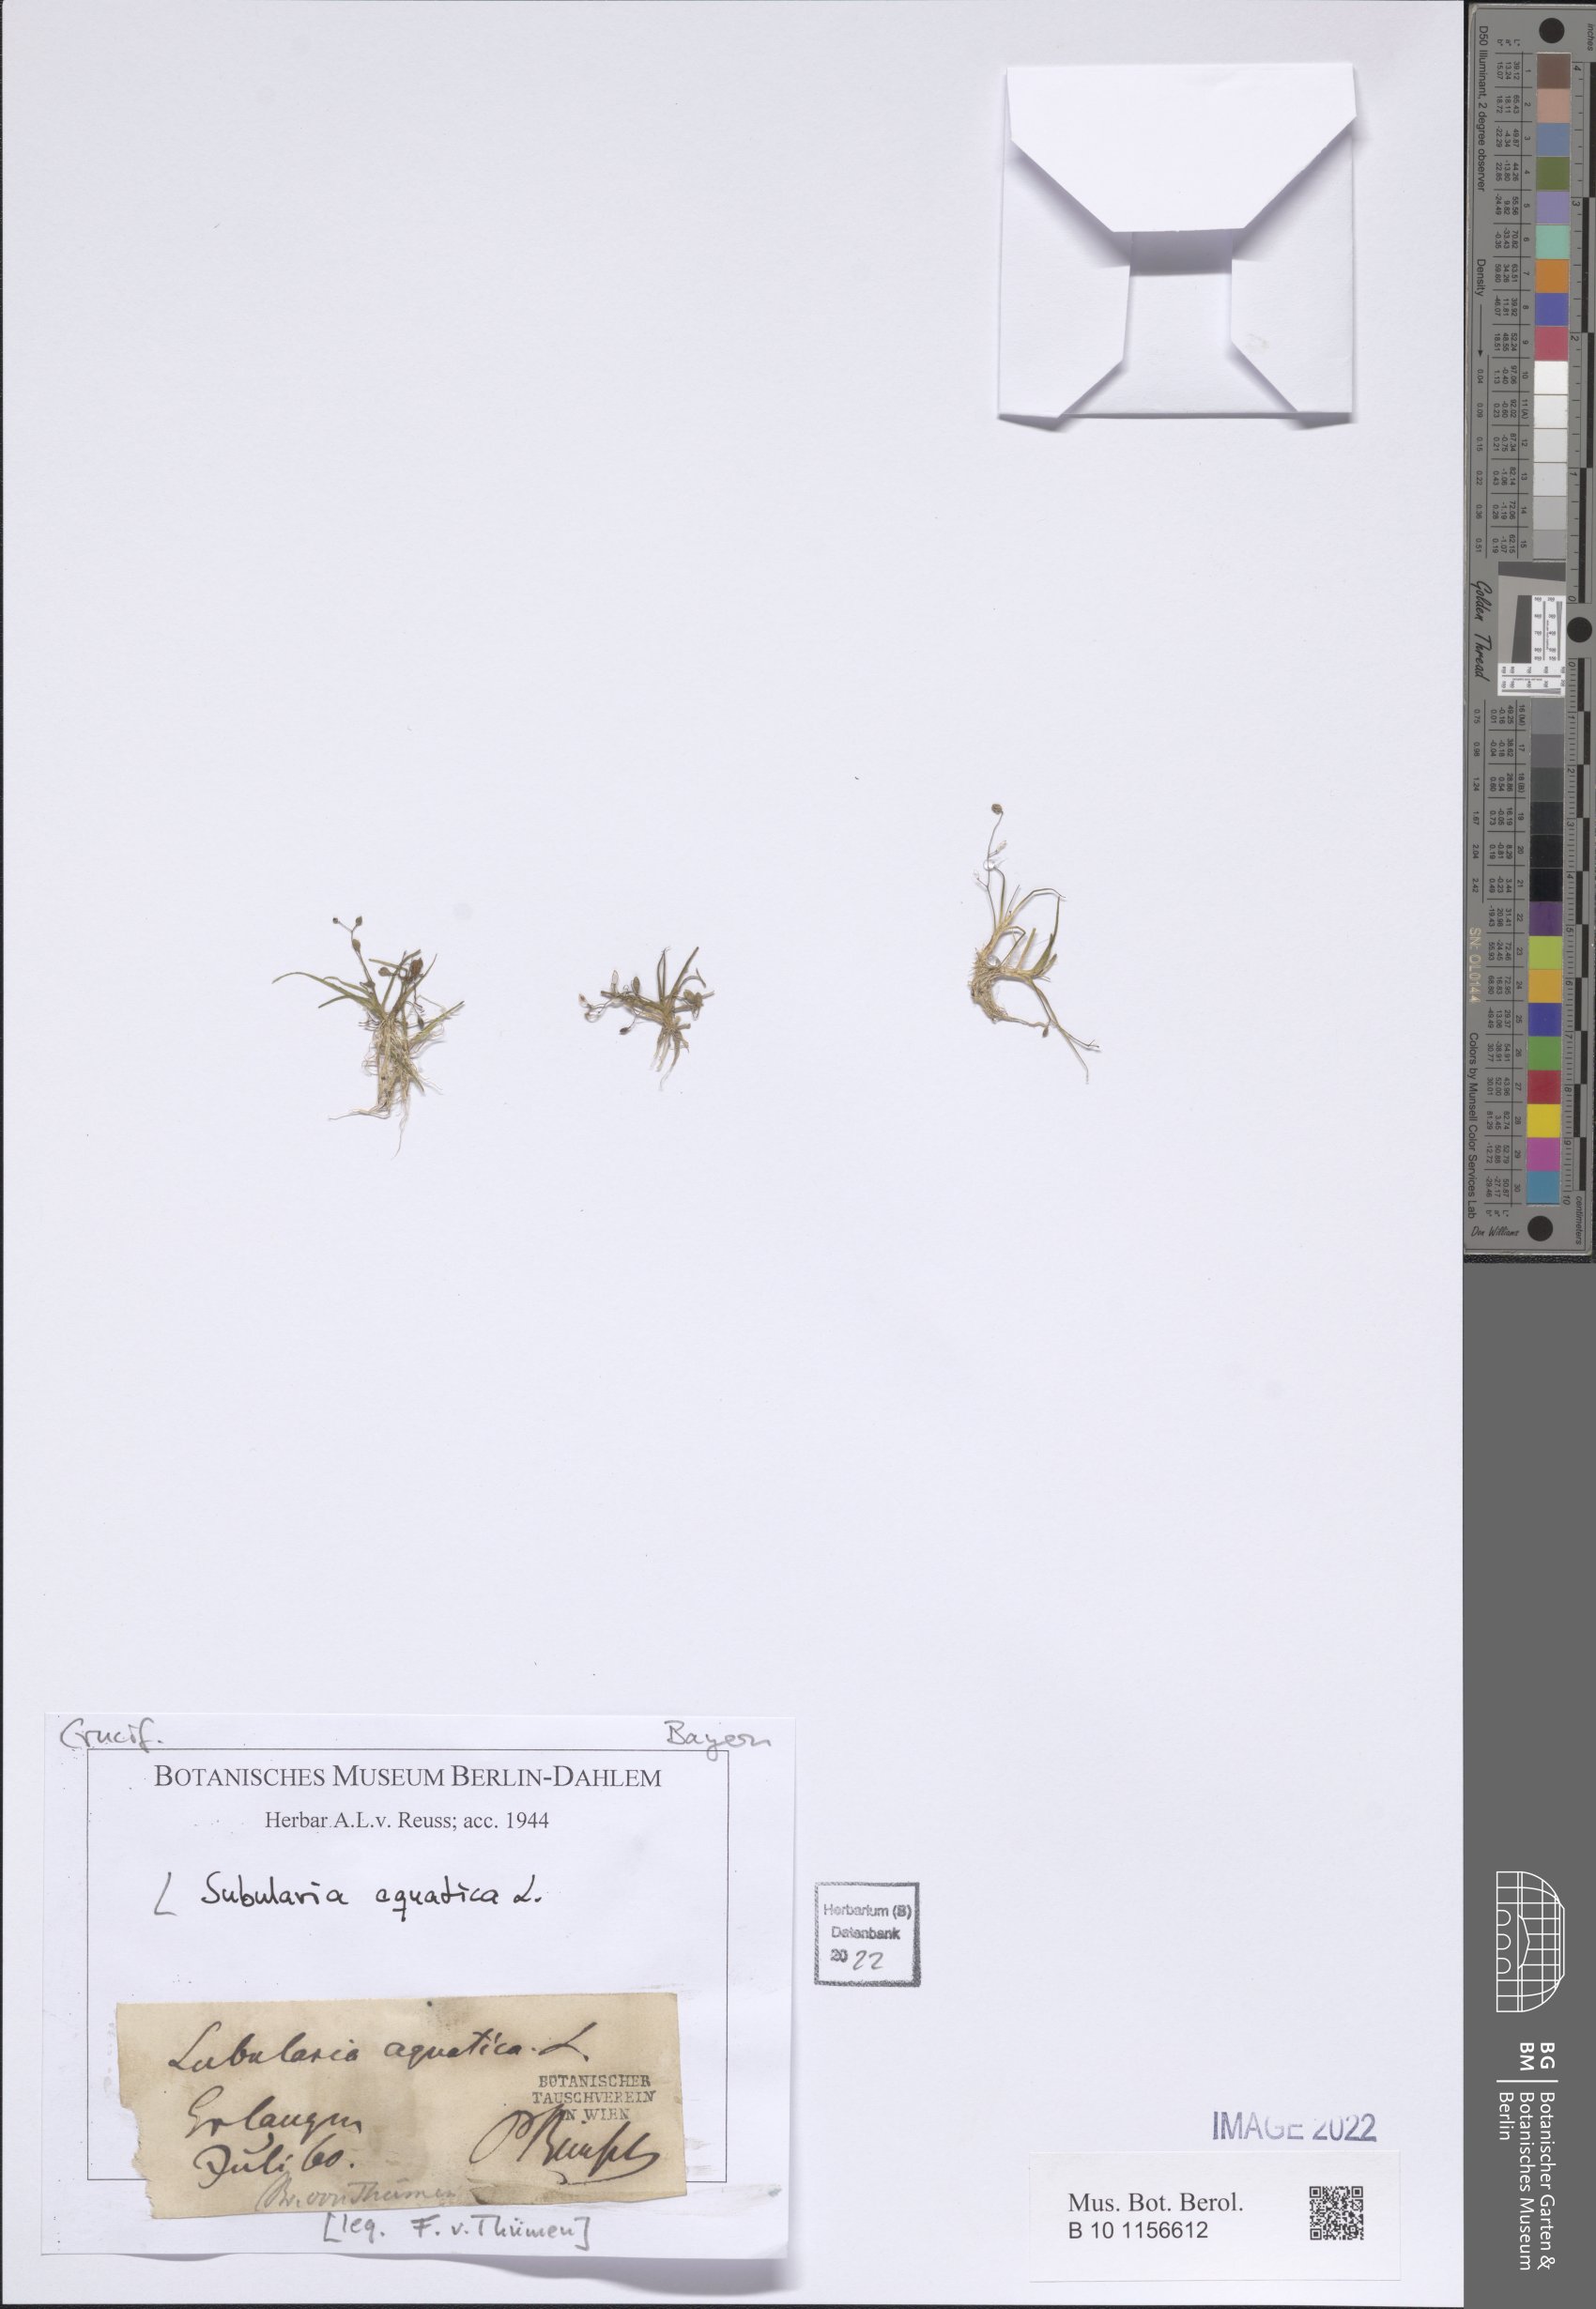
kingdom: Plantae
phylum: Tracheophyta
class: Magnoliopsida
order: Brassicales
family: Brassicaceae
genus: Subularia
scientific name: Subularia aquatica
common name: Awlwort
